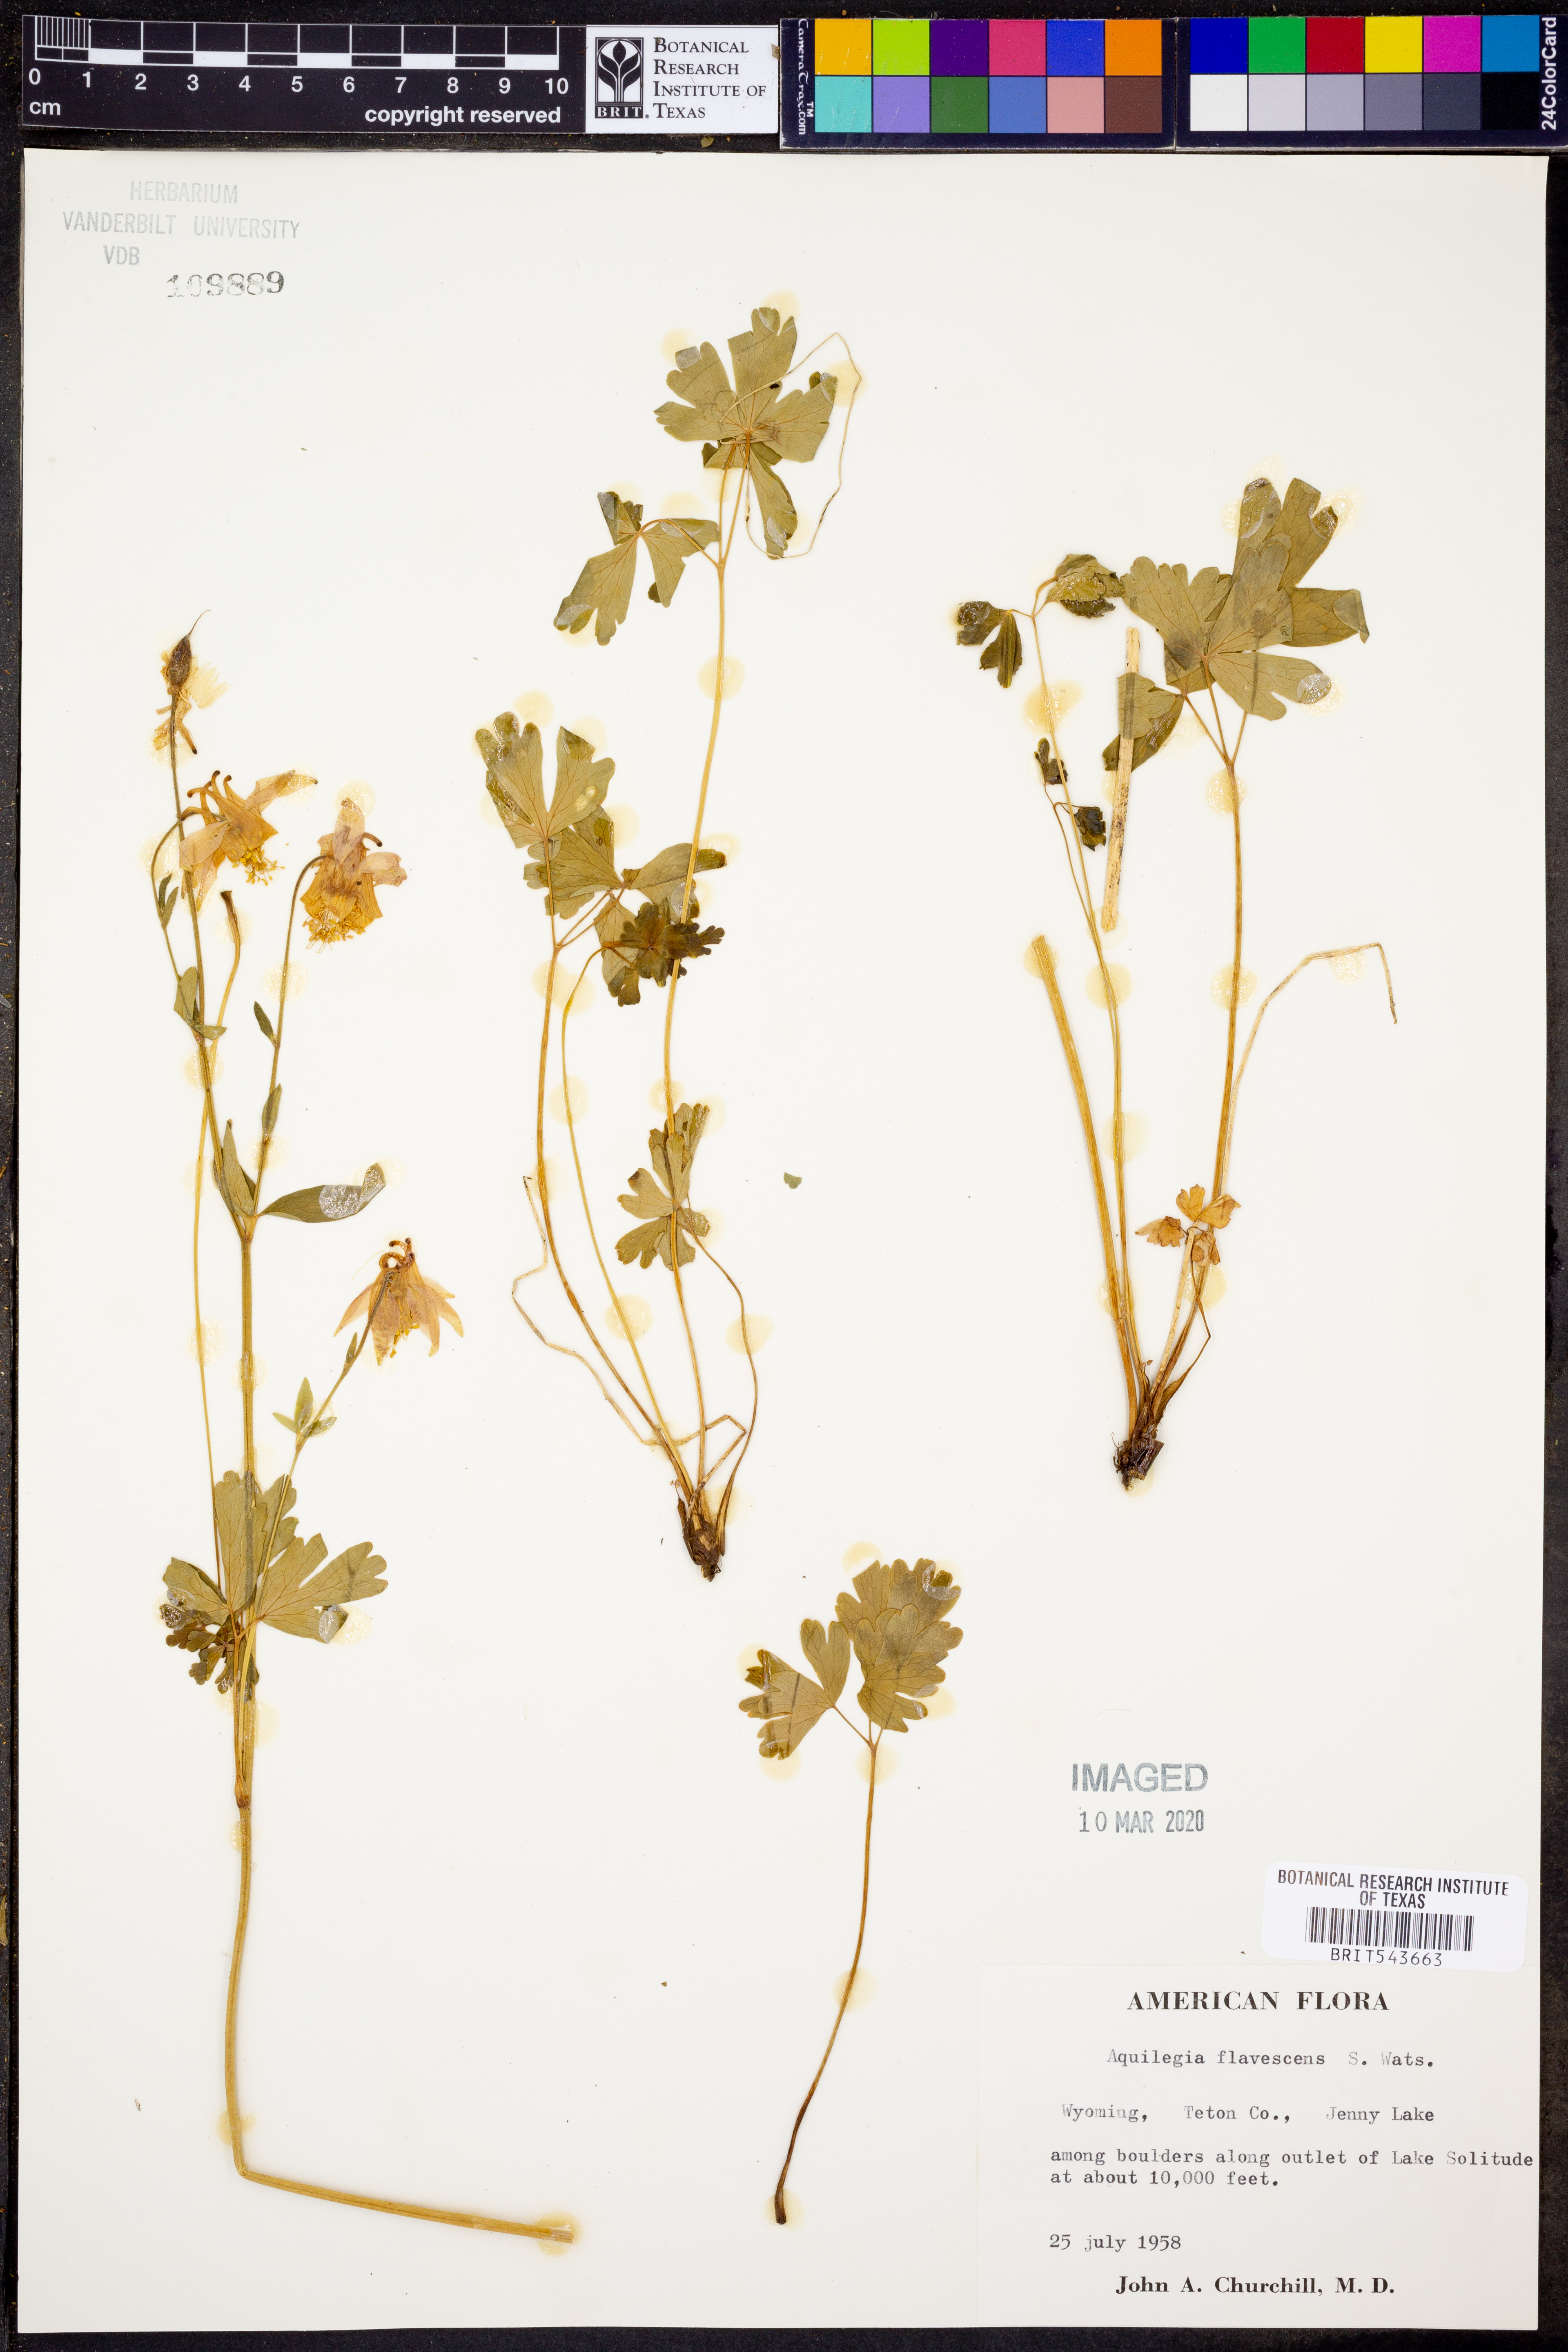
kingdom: Plantae
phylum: Tracheophyta
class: Magnoliopsida
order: Ranunculales
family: Ranunculaceae
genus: Aquilegia
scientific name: Aquilegia flavescens
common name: Yellow columbine
